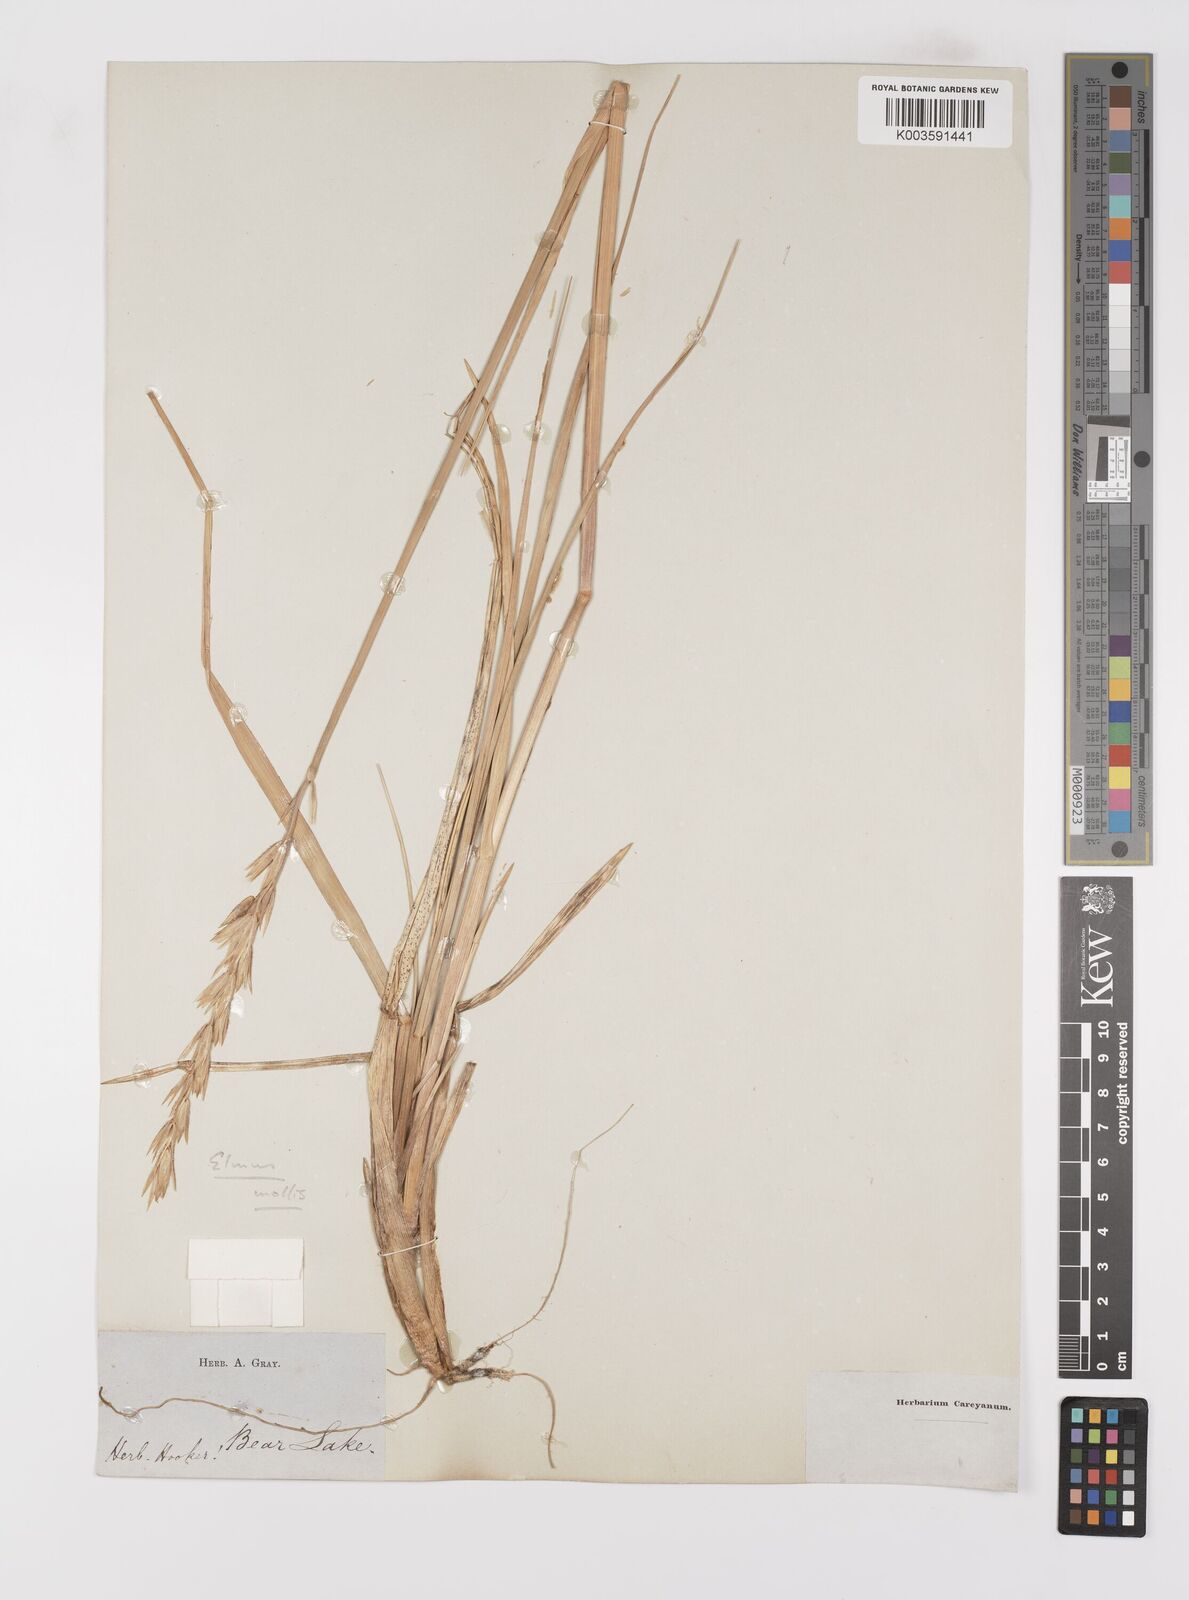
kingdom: Plantae
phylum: Tracheophyta
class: Liliopsida
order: Poales
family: Poaceae
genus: Leymus
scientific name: Leymus mollis
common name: American dune grass
